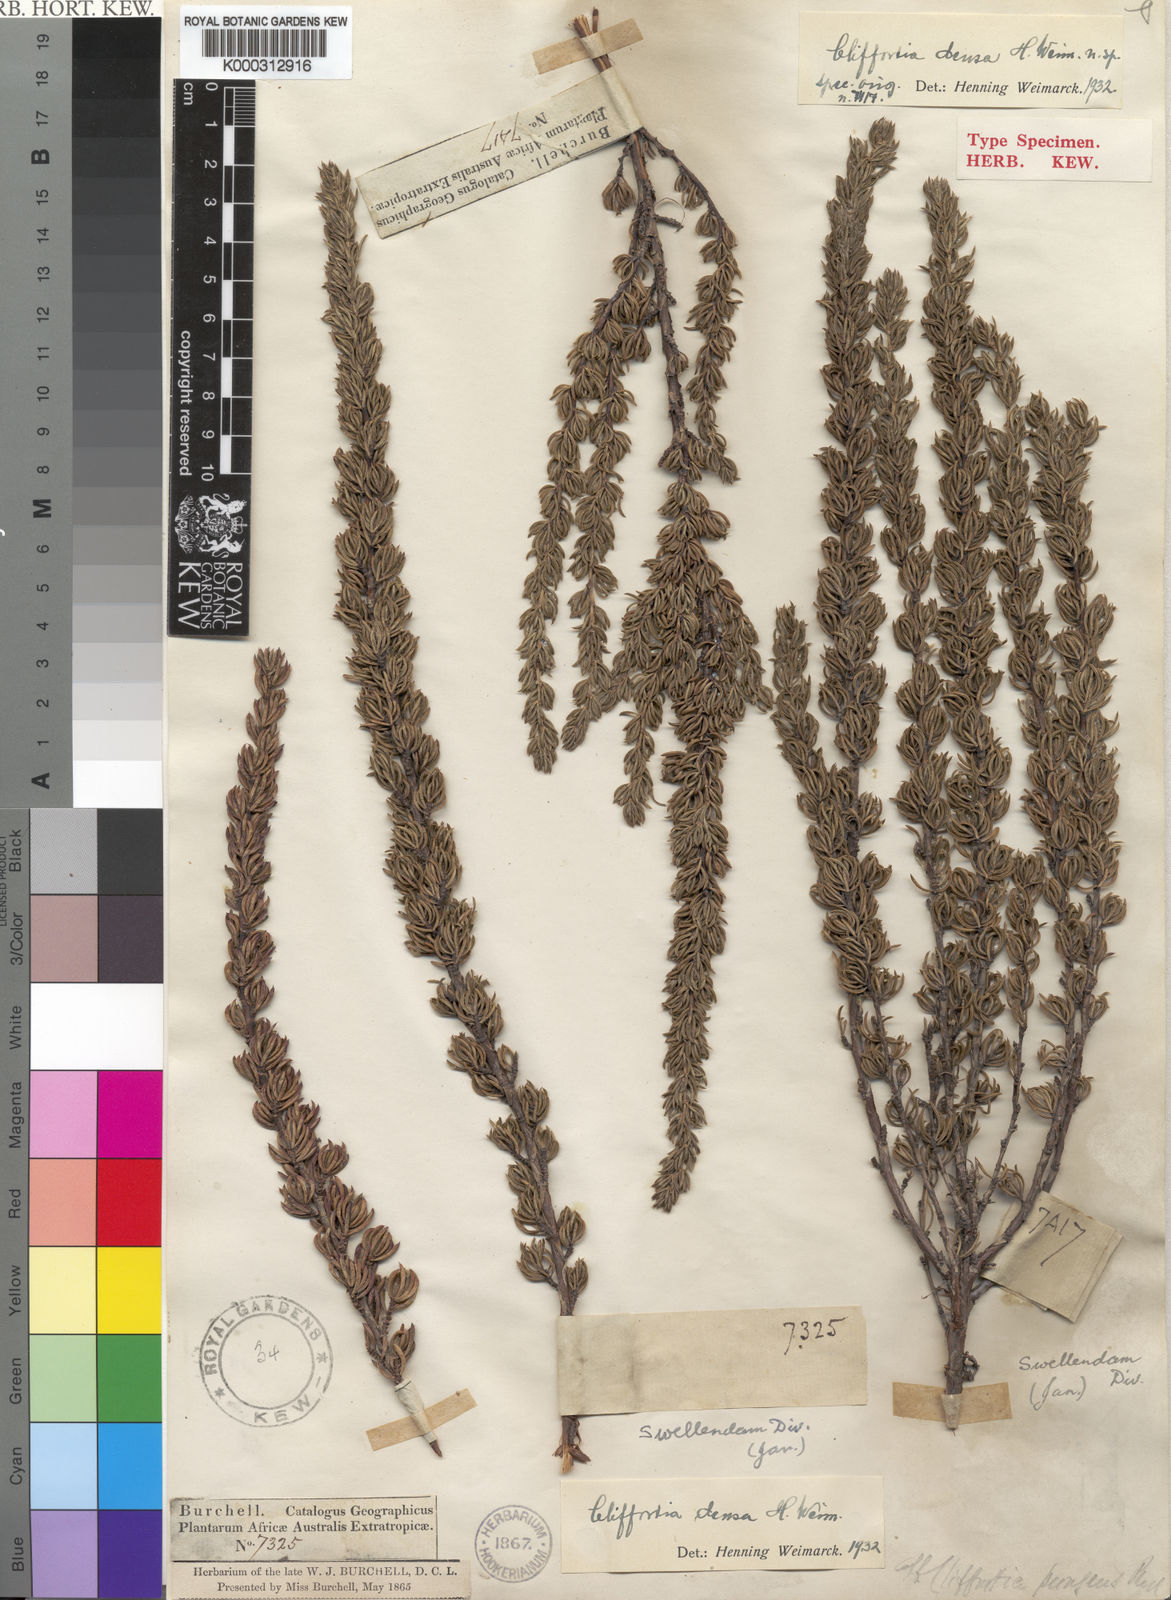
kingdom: Plantae
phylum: Tracheophyta
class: Magnoliopsida
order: Rosales
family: Rosaceae
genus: Cliffortia
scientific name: Cliffortia densa
